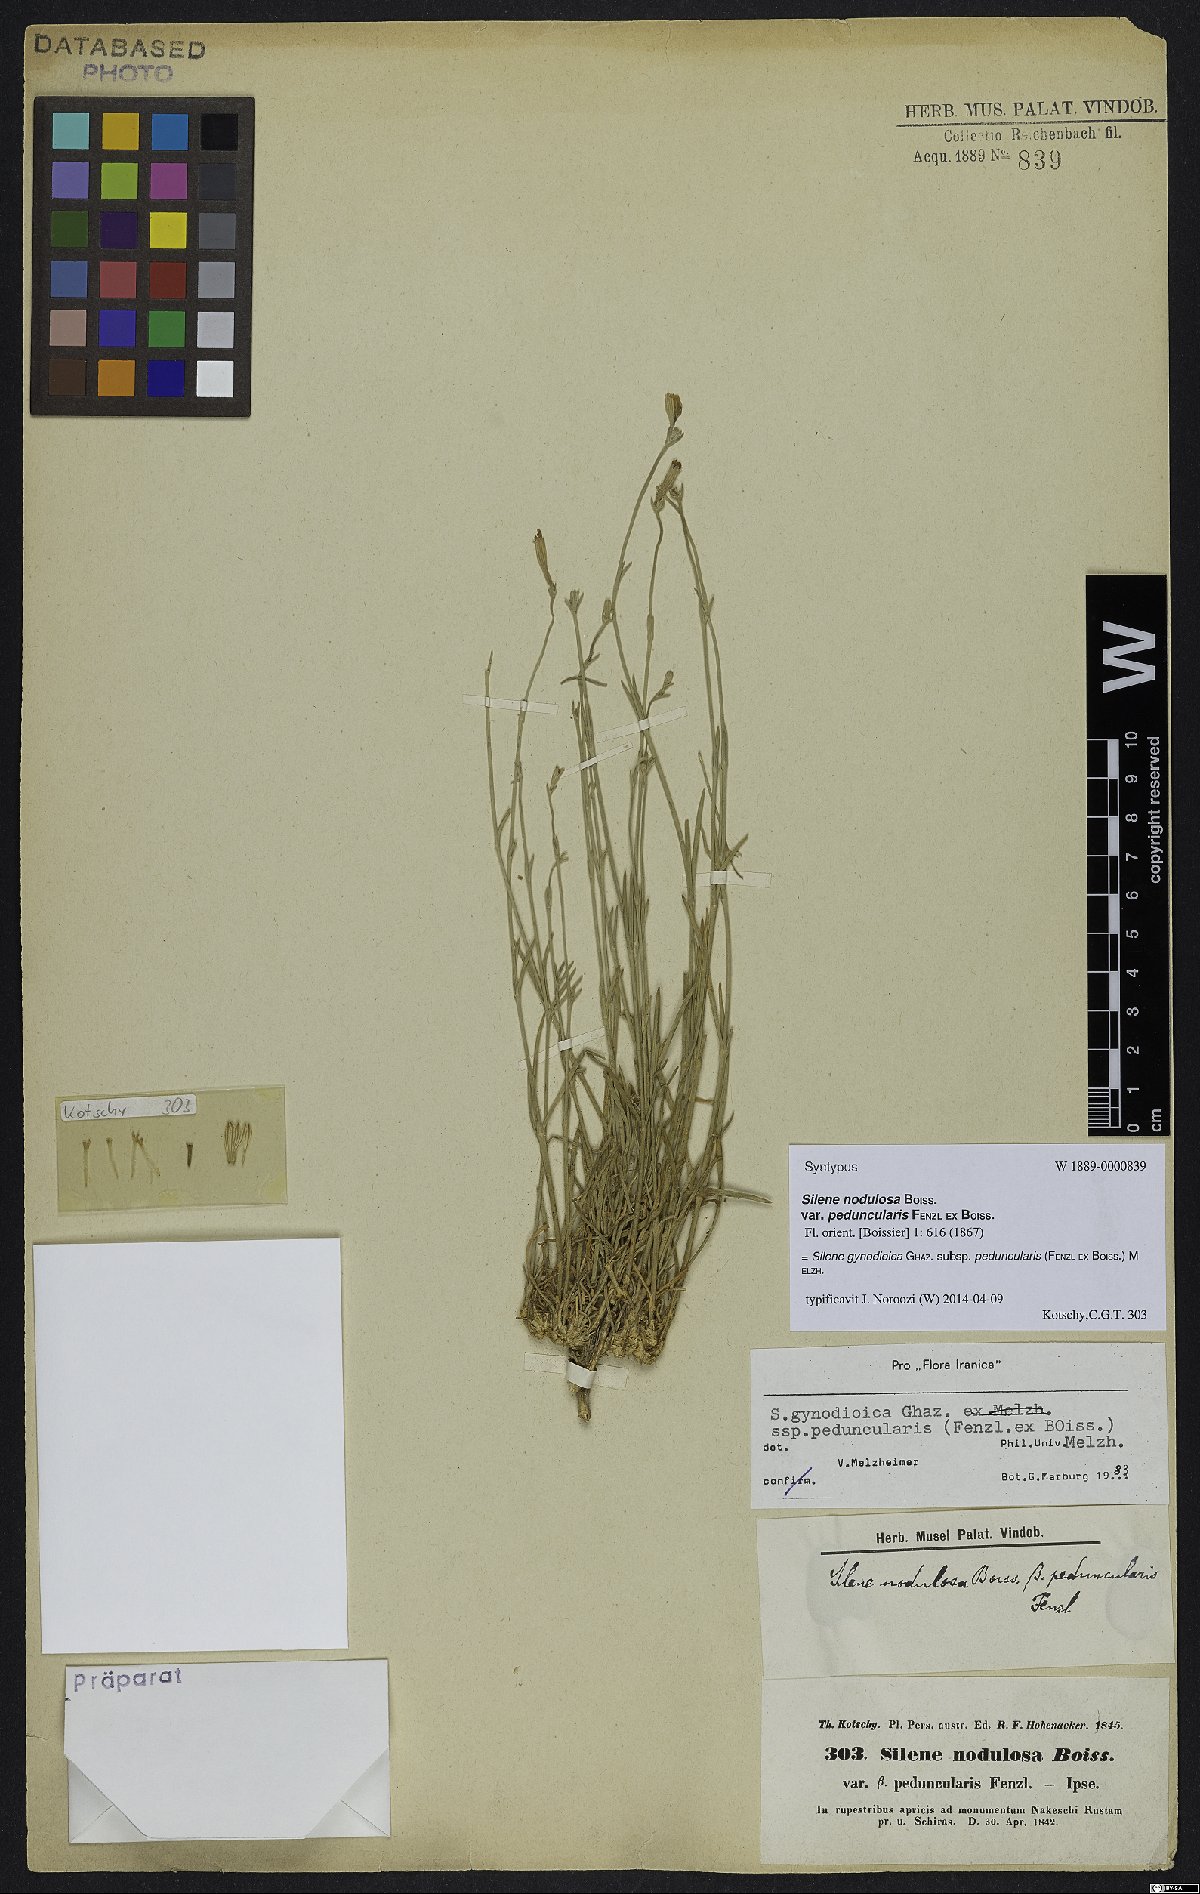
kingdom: Plantae
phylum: Tracheophyta
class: Magnoliopsida
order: Caryophyllales
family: Caryophyllaceae
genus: Silene
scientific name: Silene behboudiana
